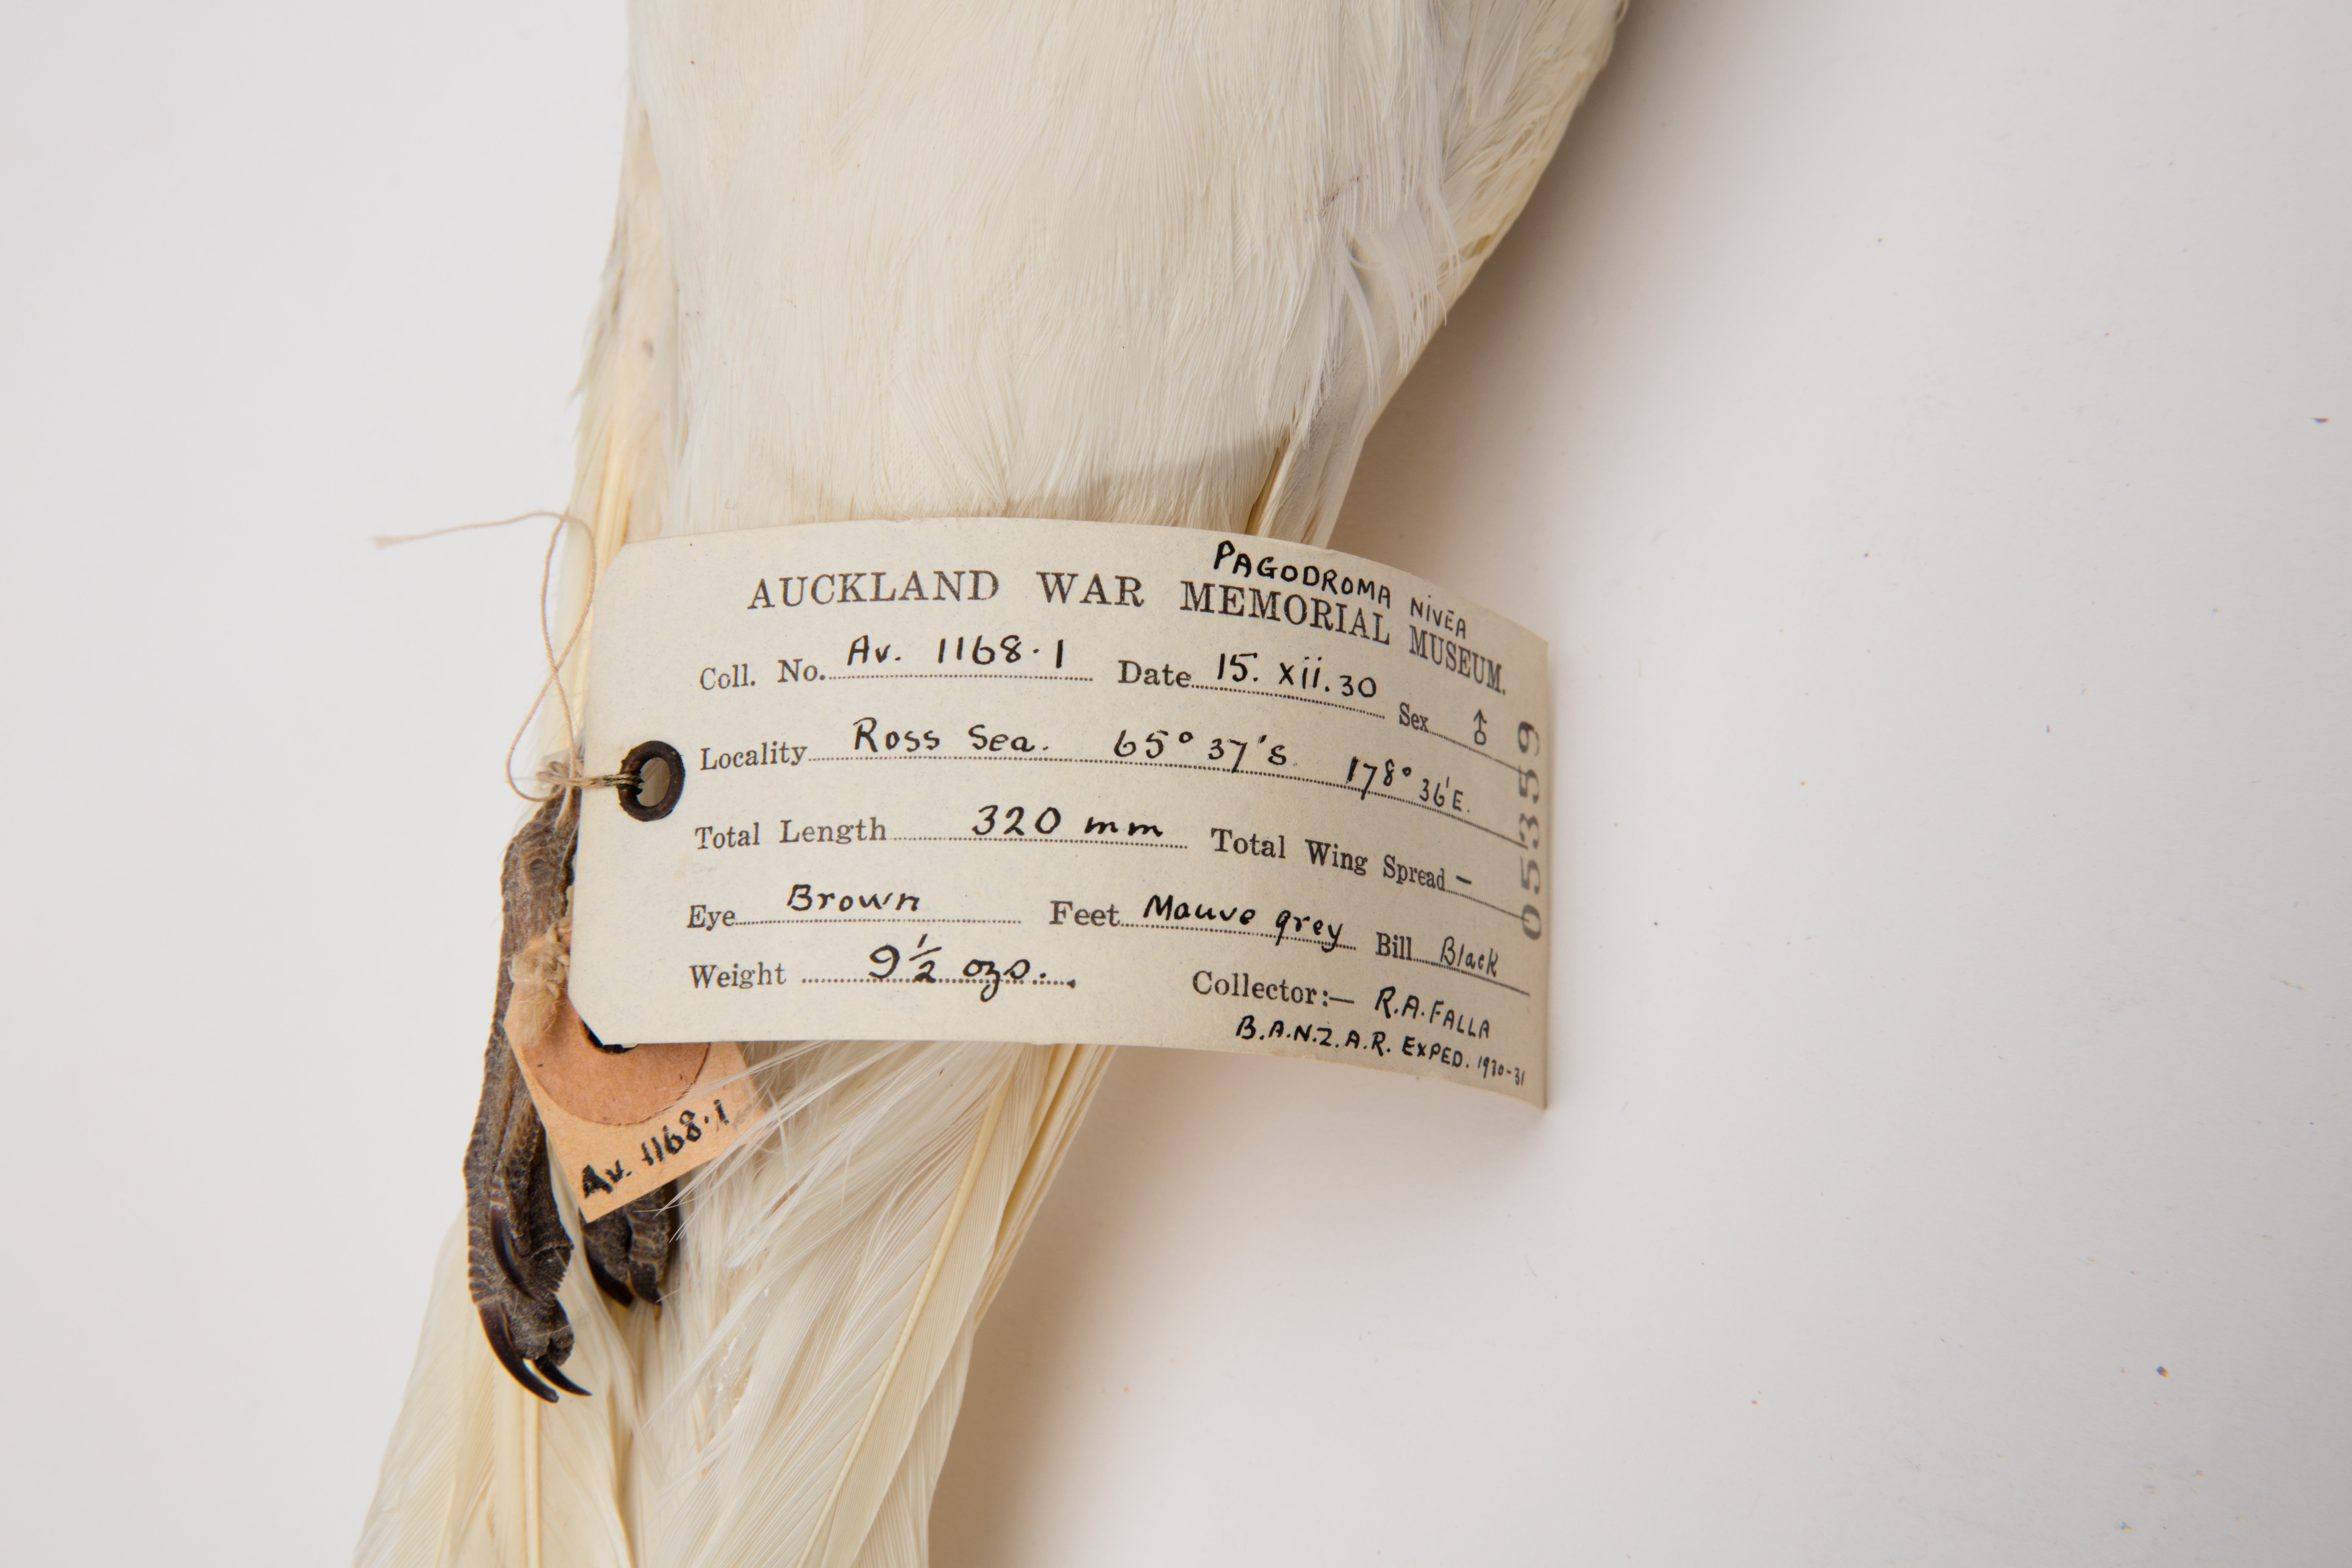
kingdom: Animalia
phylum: Chordata
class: Aves
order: Procellariiformes
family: Procellariidae
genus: Pagodroma
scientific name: Pagodroma nivea
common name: Snow petrel
